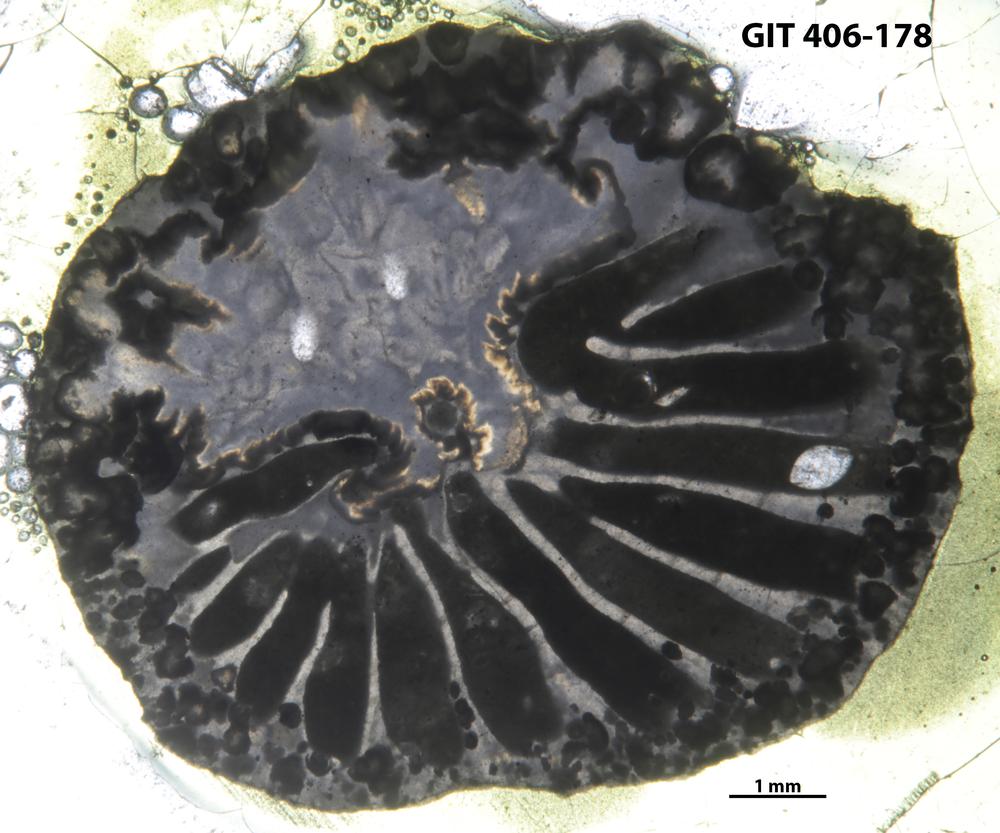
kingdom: Animalia
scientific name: Animalia
